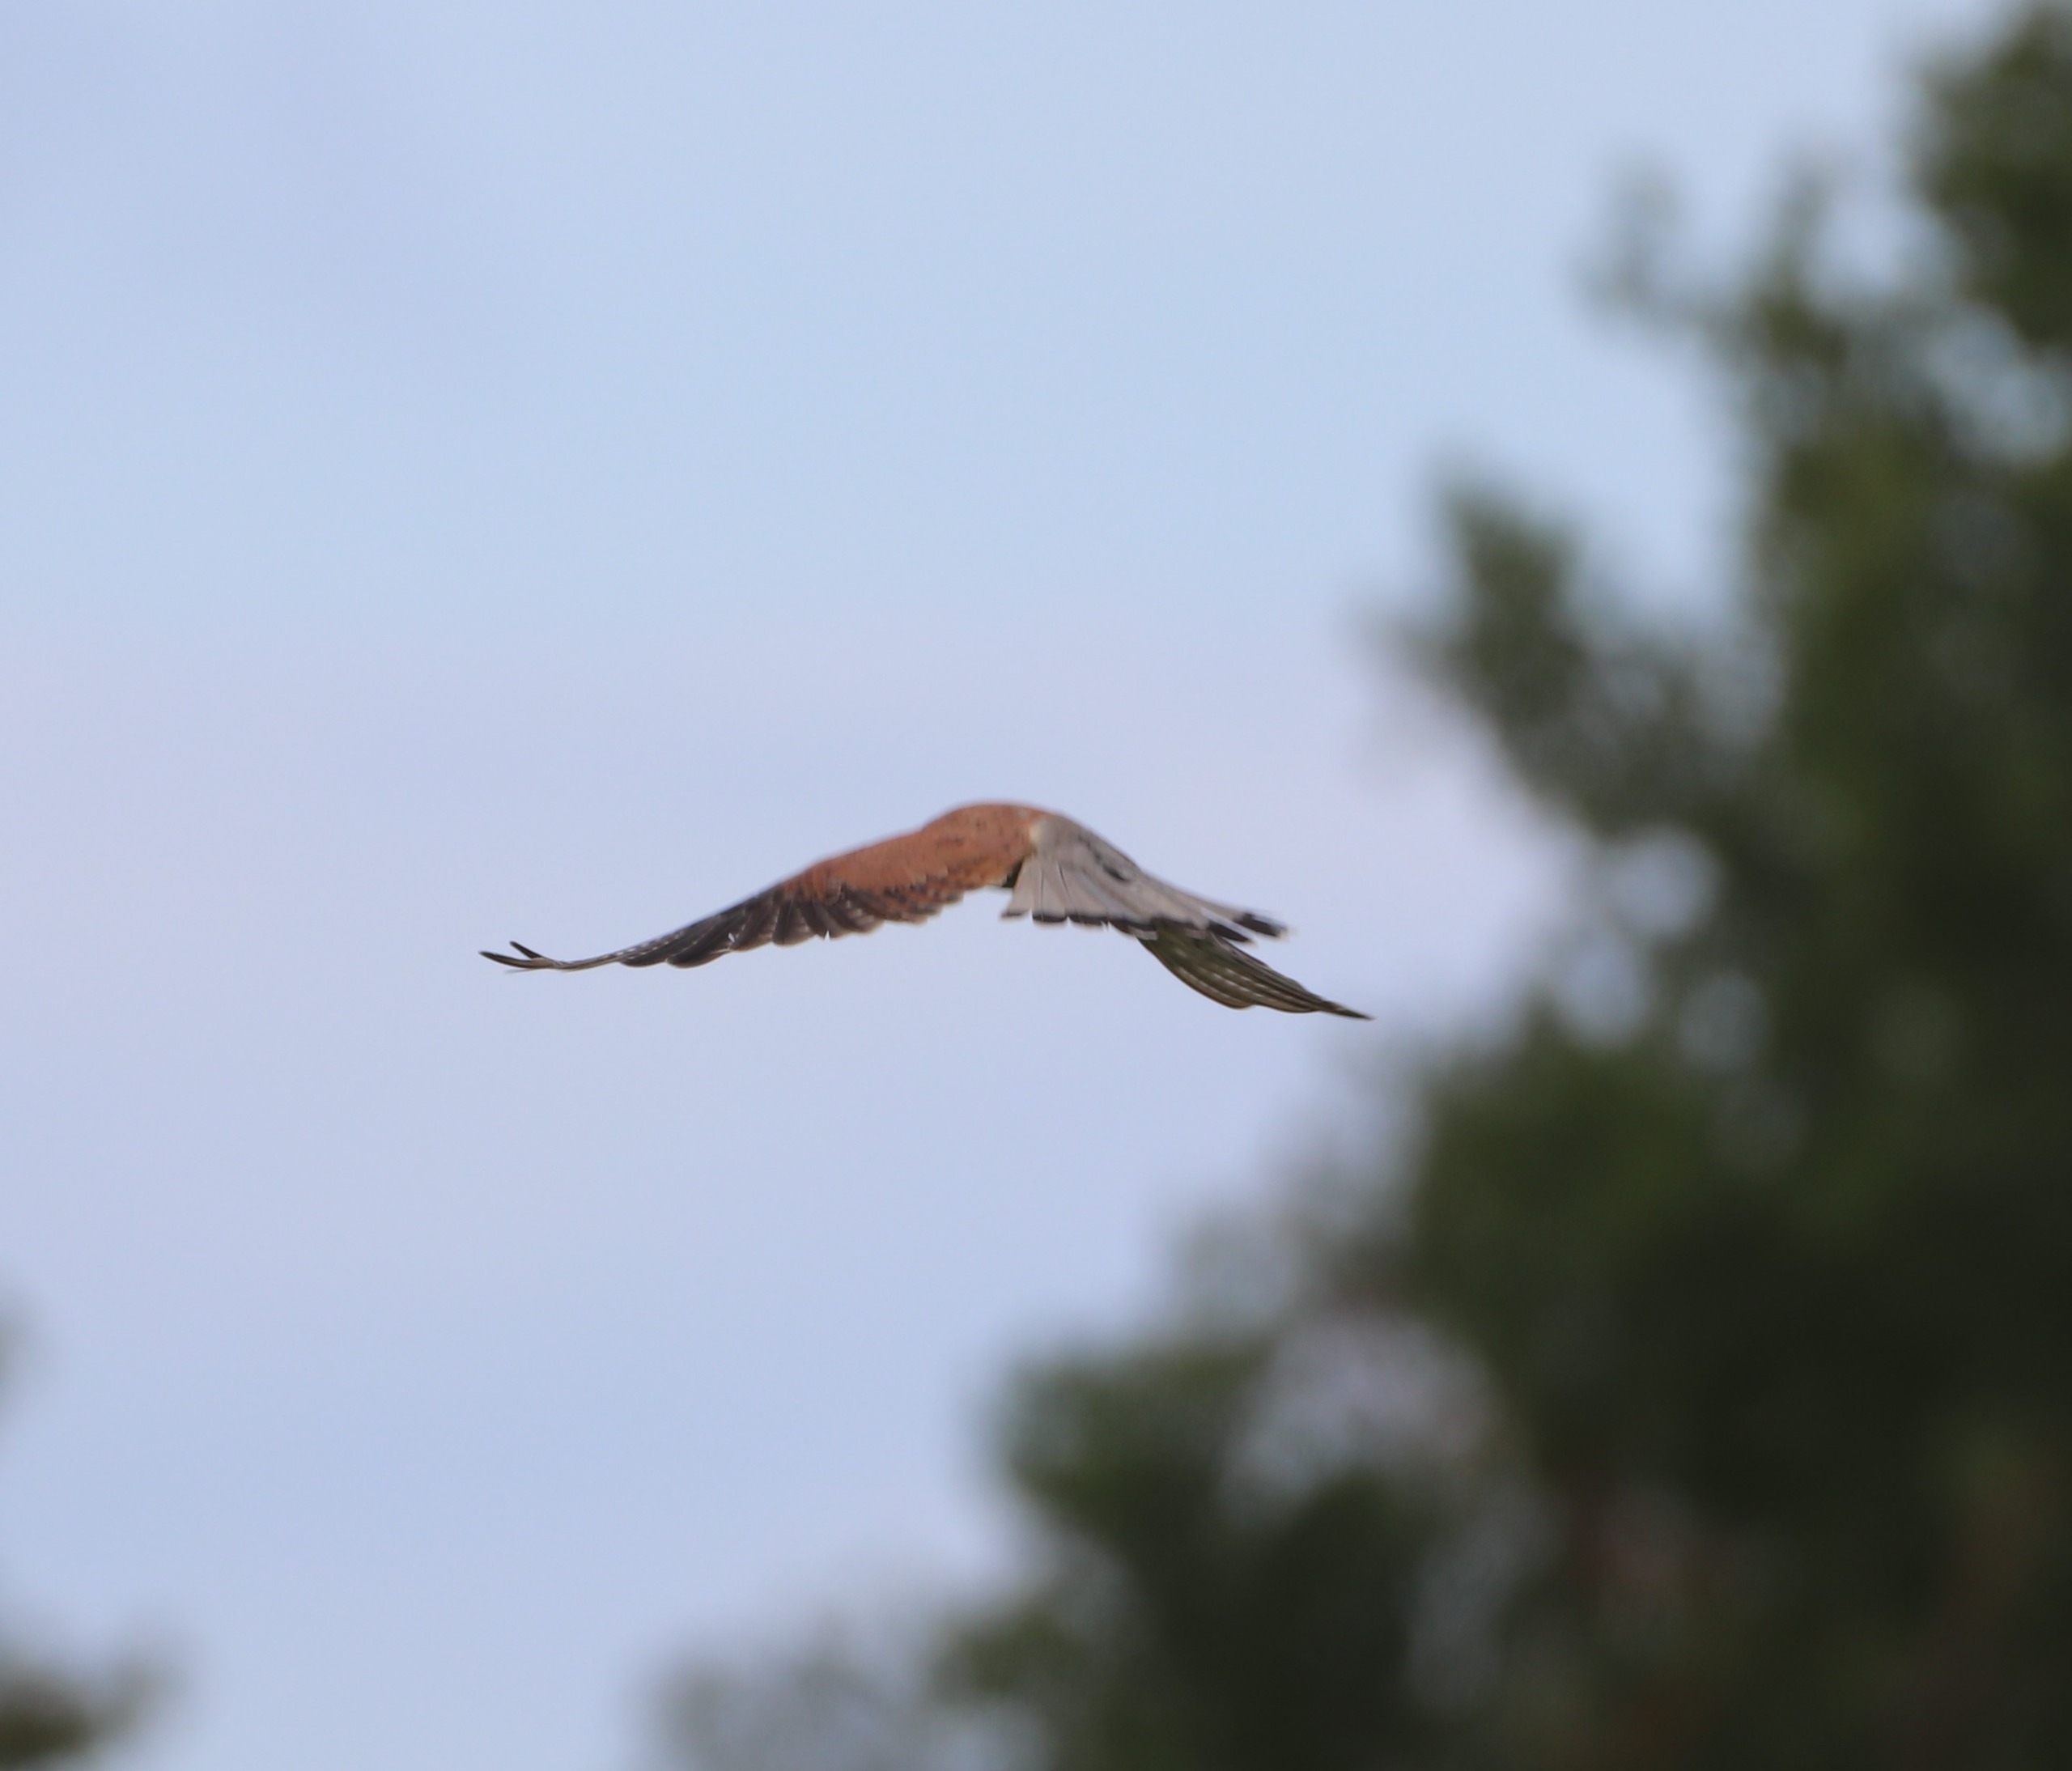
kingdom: Animalia
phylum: Chordata
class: Aves
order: Falconiformes
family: Falconidae
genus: Falco
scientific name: Falco tinnunculus
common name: Tårnfalk
